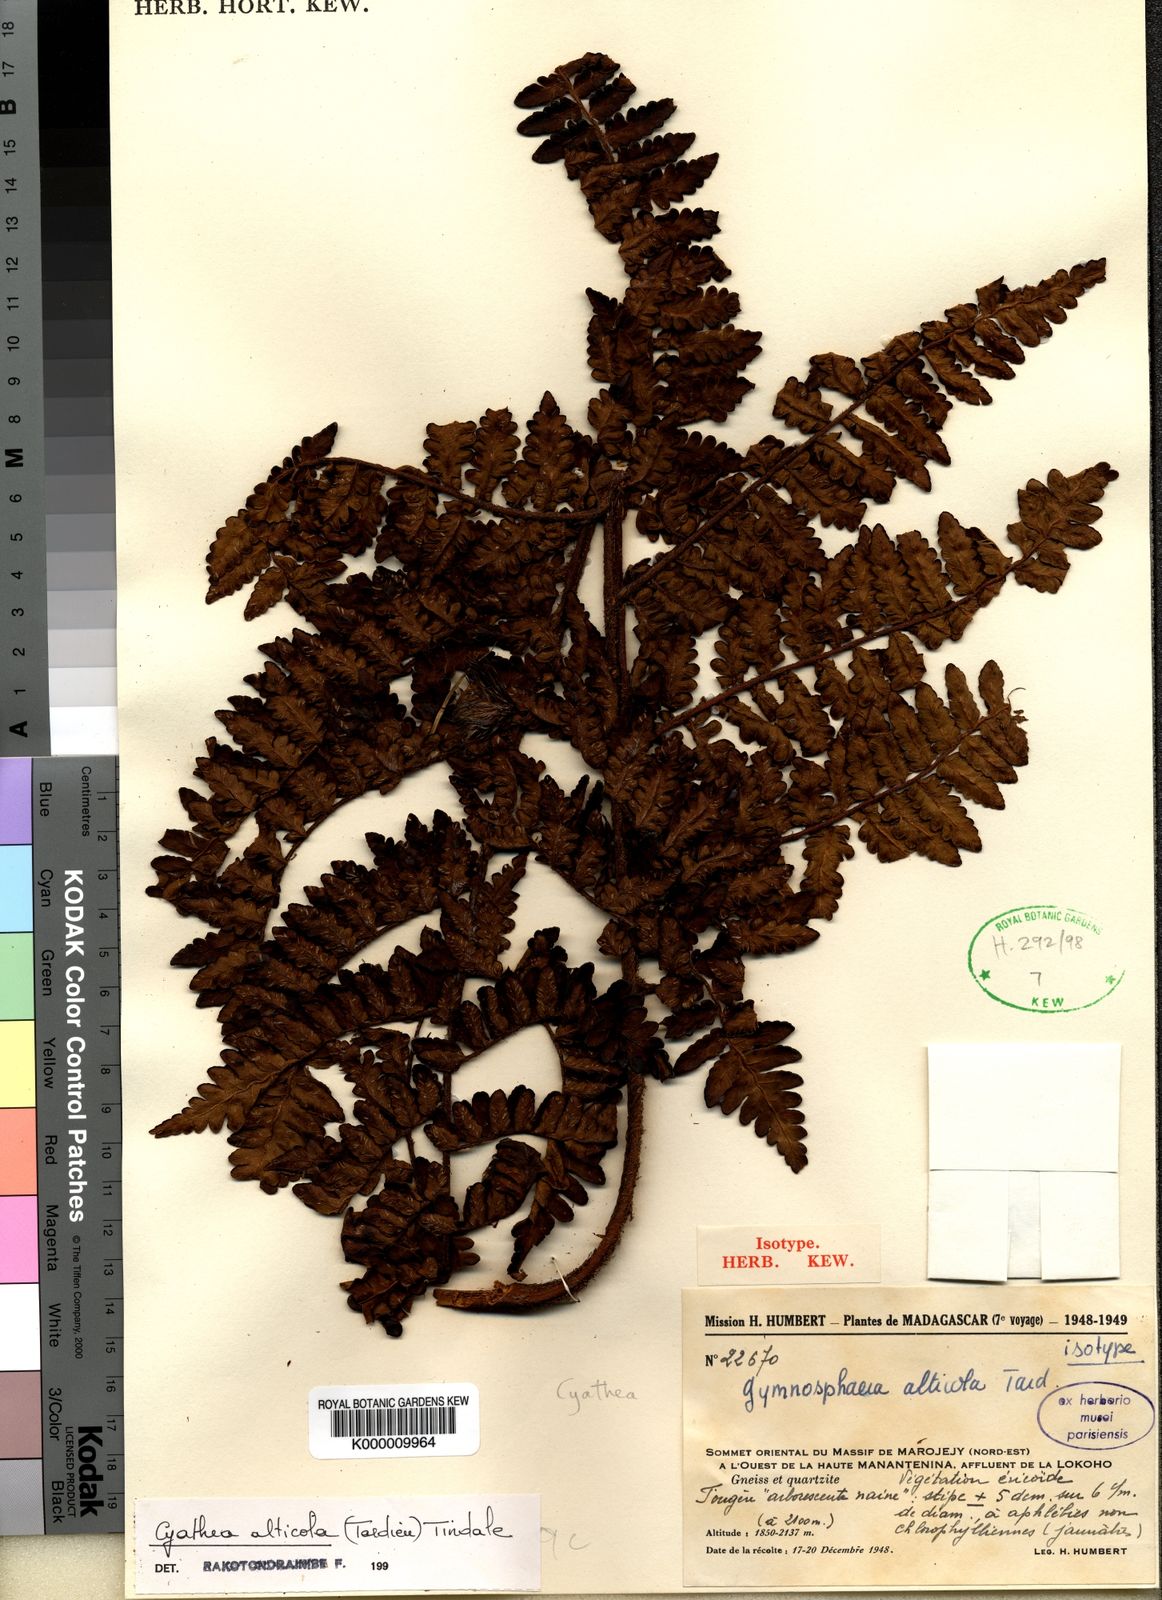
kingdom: Plantae
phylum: Tracheophyta
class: Polypodiopsida
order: Cyatheales
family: Cyatheaceae
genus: Gymnosphaera
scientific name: Gymnosphaera alticola
